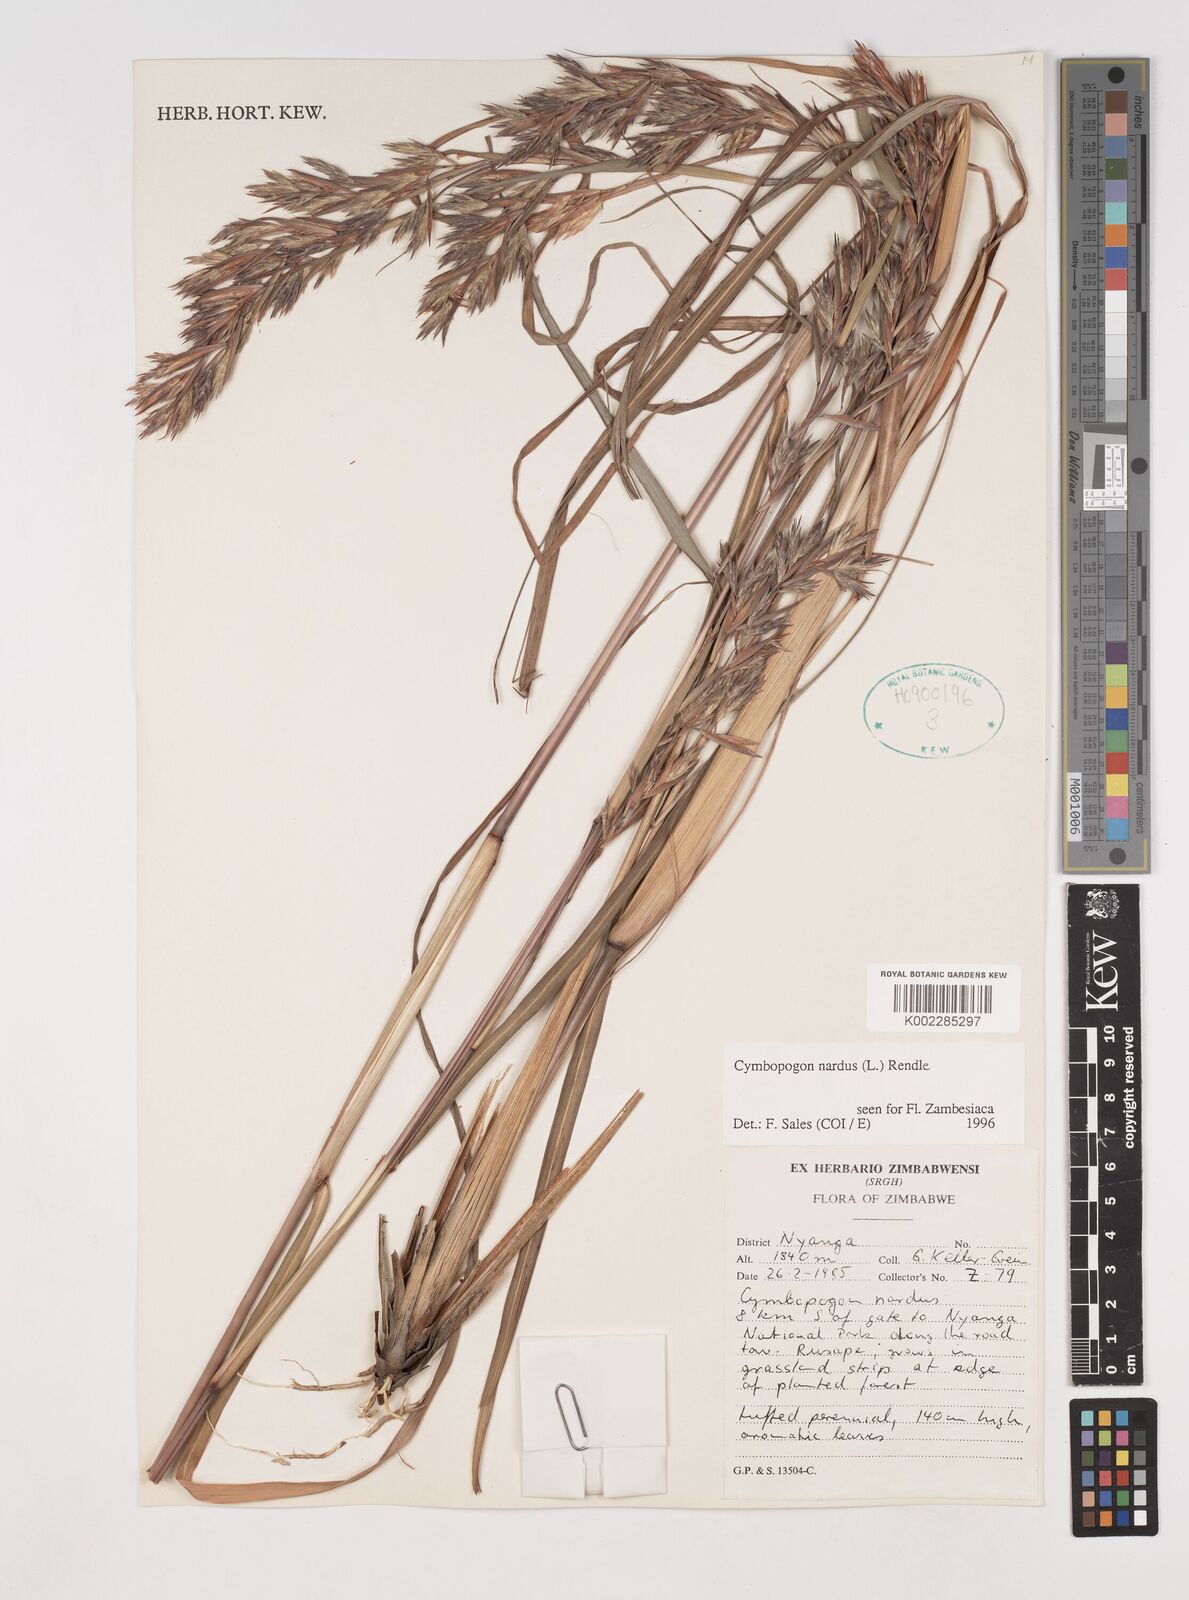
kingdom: Plantae
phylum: Tracheophyta
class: Liliopsida
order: Poales
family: Poaceae
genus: Cymbopogon
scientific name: Cymbopogon nardus
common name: Giant turpentine grass
